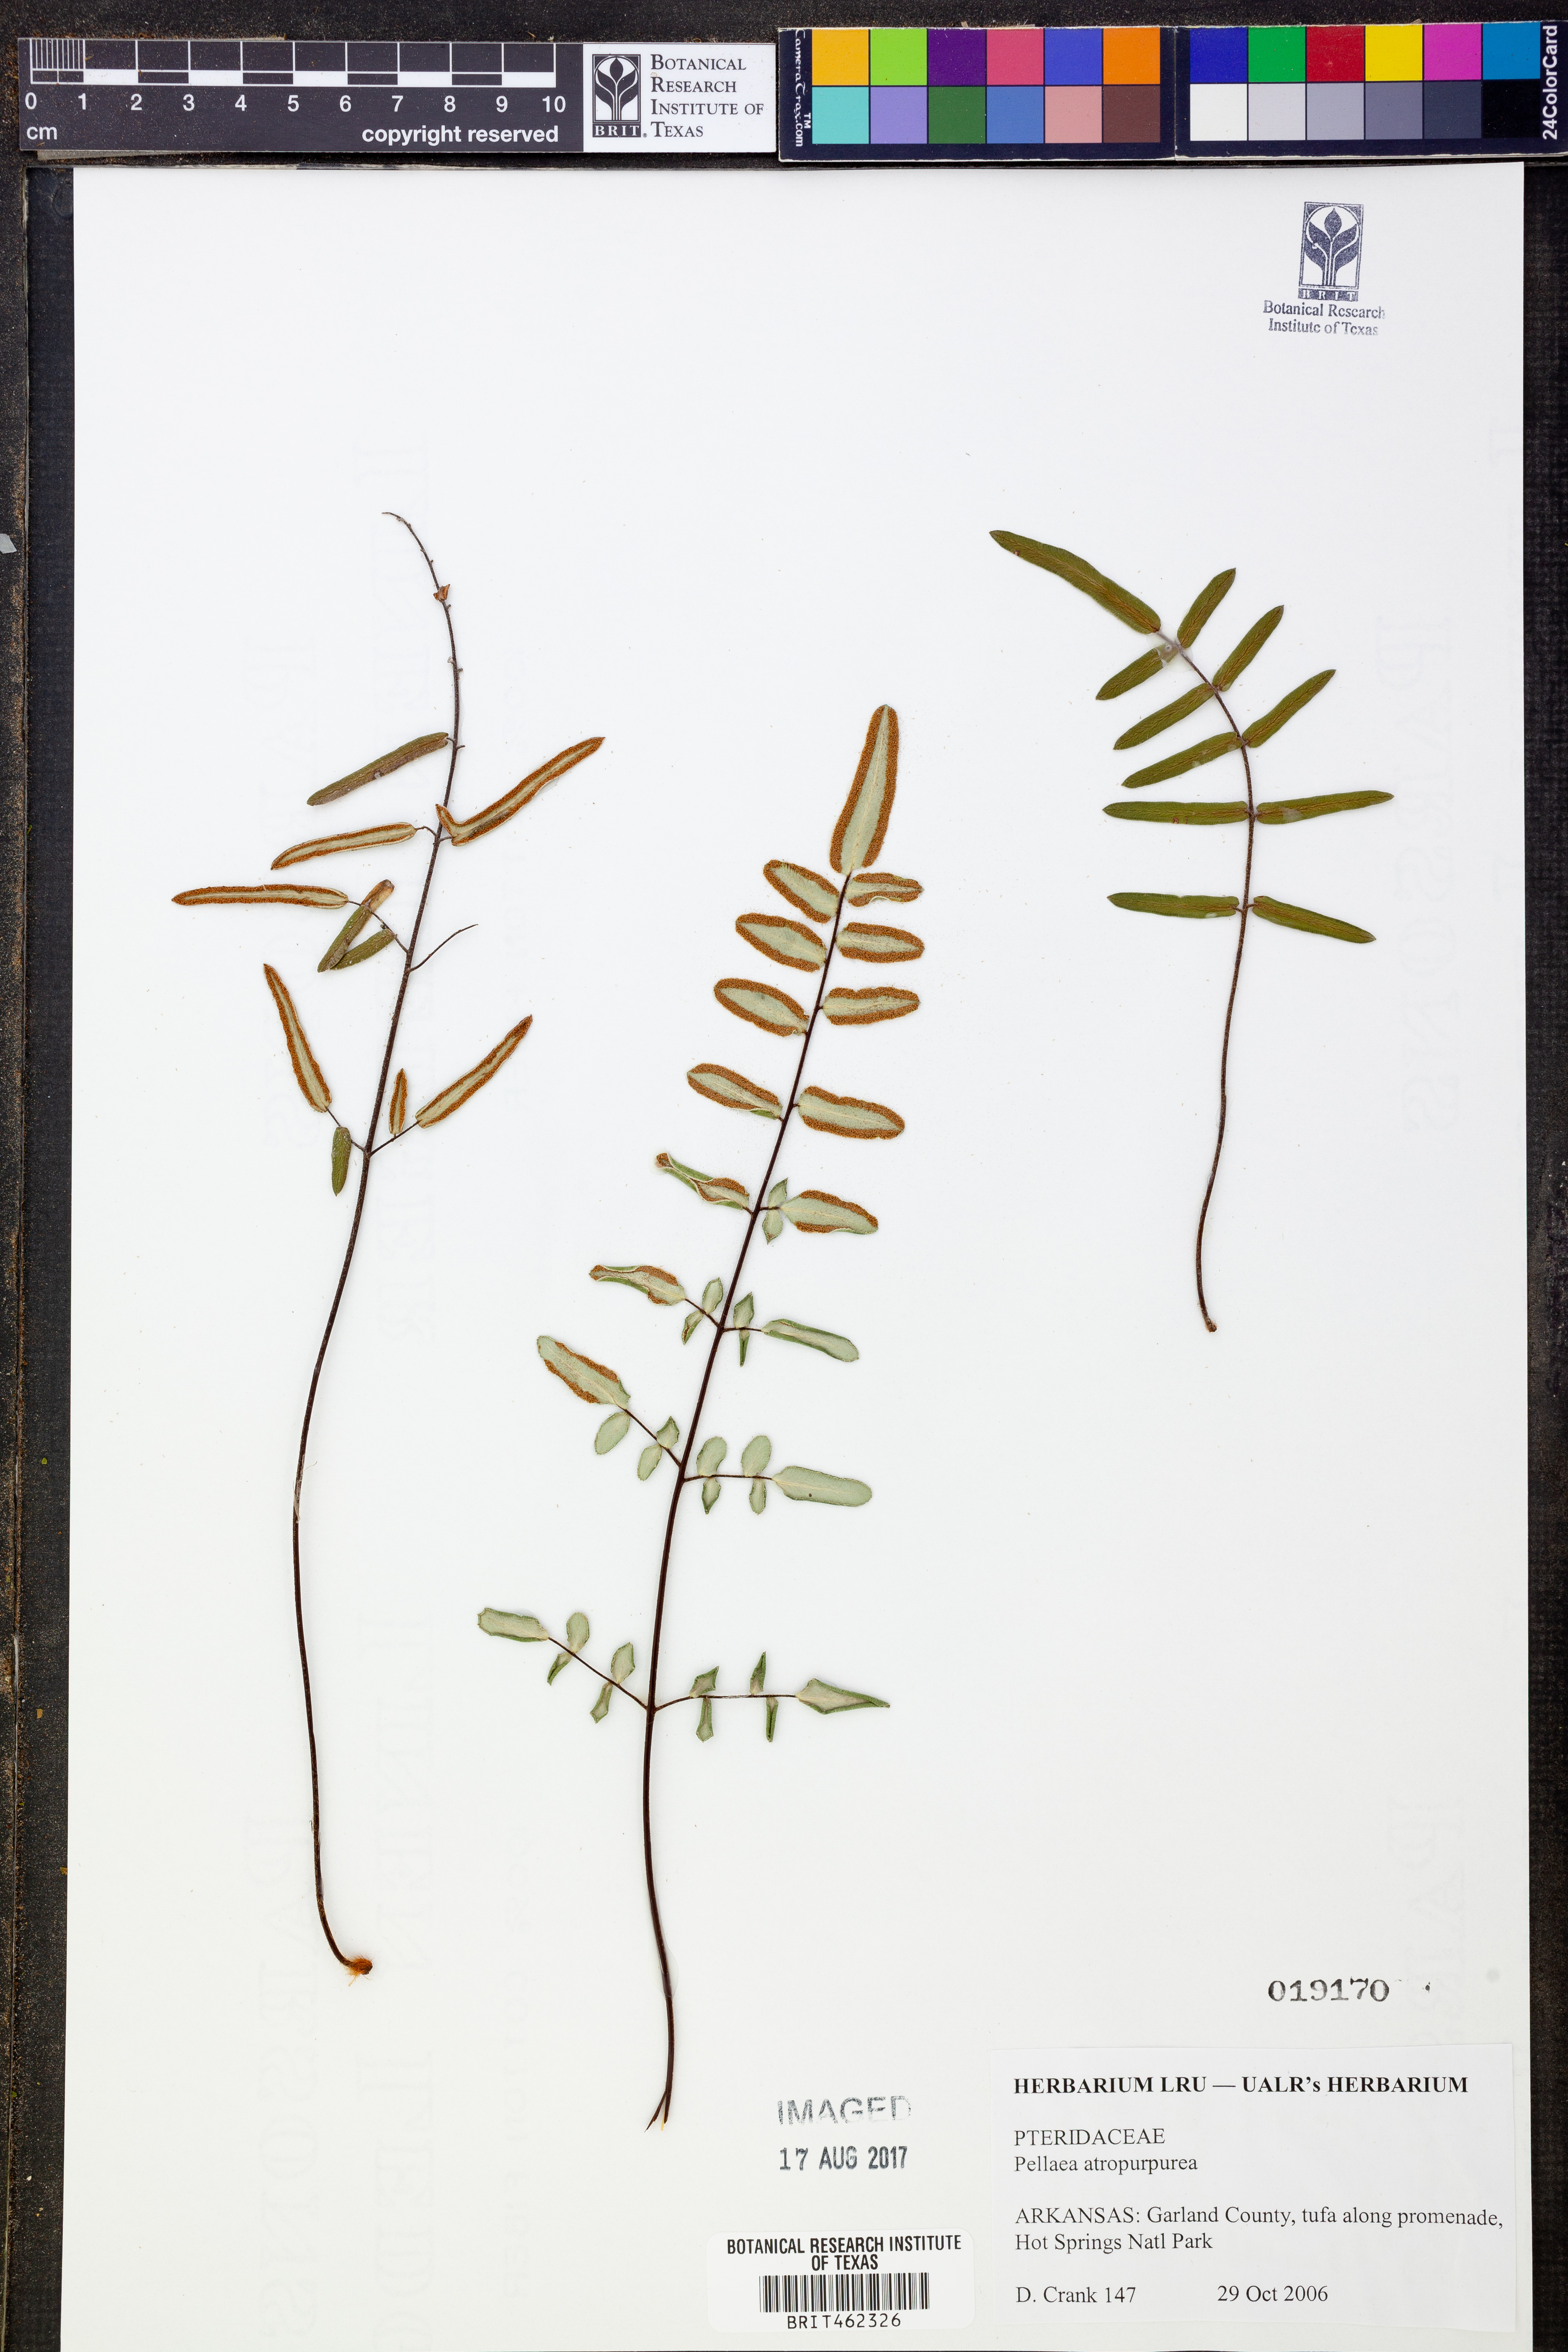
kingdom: Plantae
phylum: Tracheophyta
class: Polypodiopsida
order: Polypodiales
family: Pteridaceae
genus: Pellaea
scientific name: Pellaea atropurpurea
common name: Hairy cliffbrake
